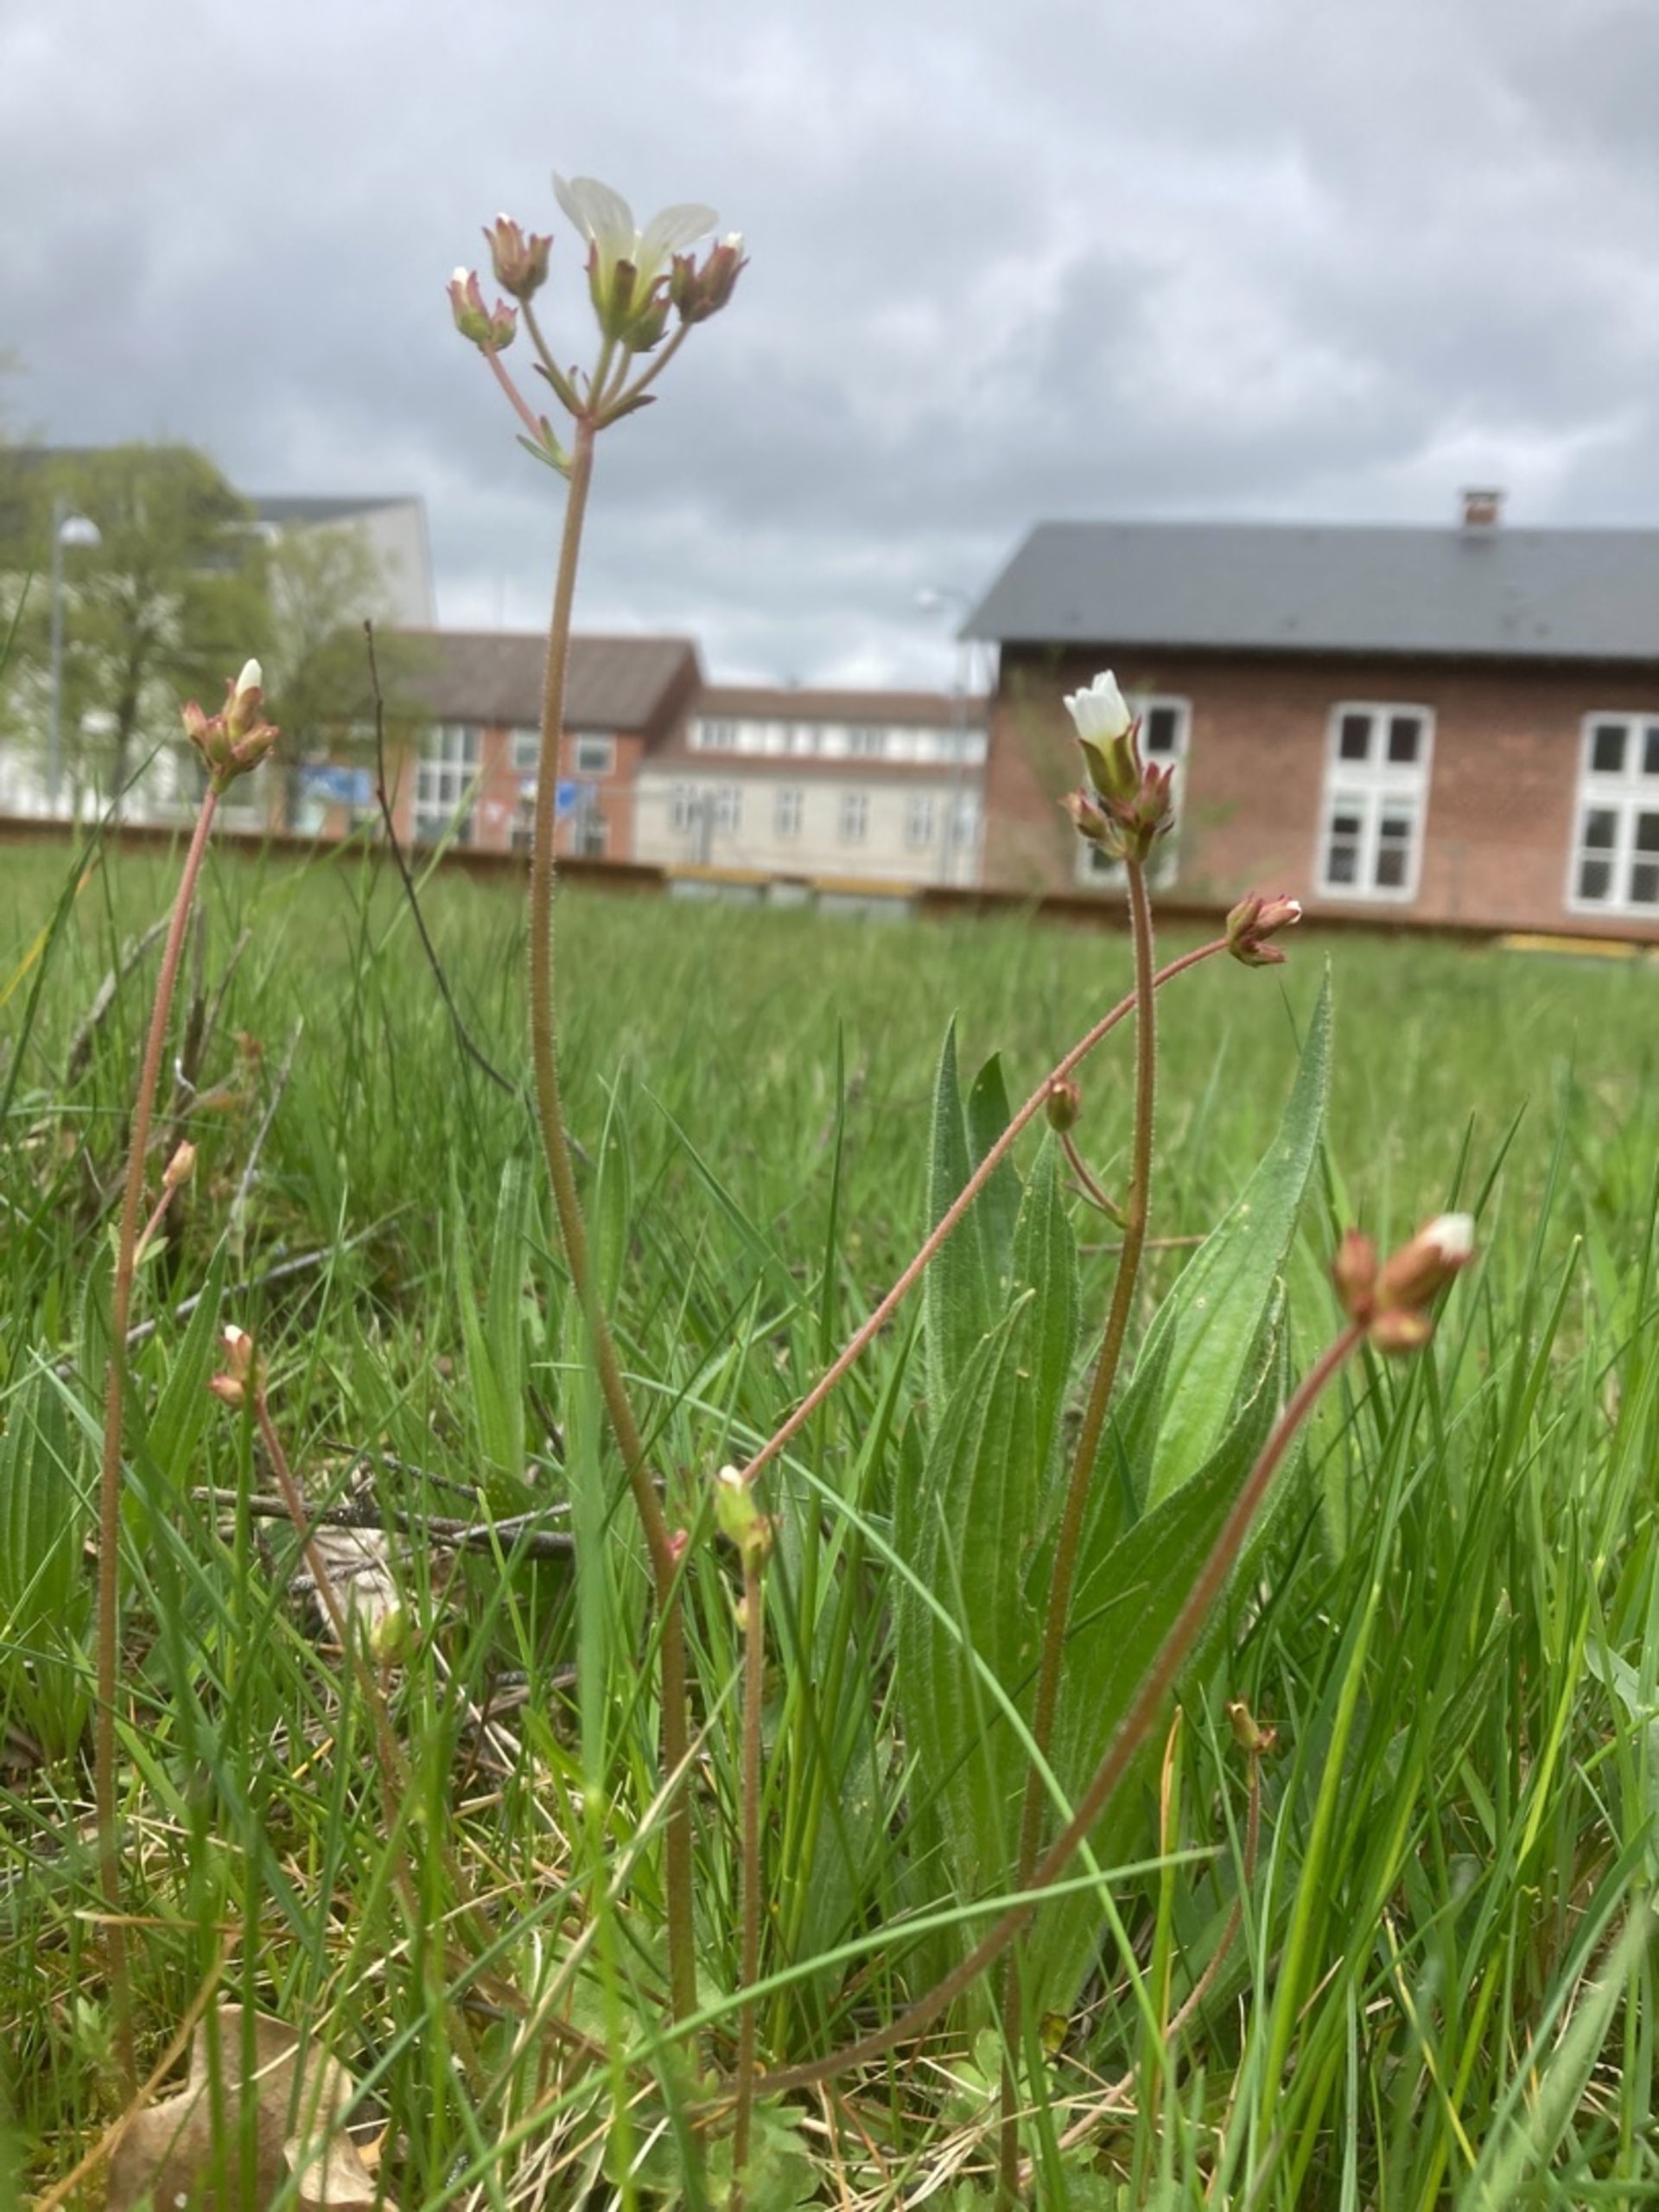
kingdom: Plantae
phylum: Tracheophyta
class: Magnoliopsida
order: Saxifragales
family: Saxifragaceae
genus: Saxifraga
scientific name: Saxifraga granulata
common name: Kornet stenbræk
